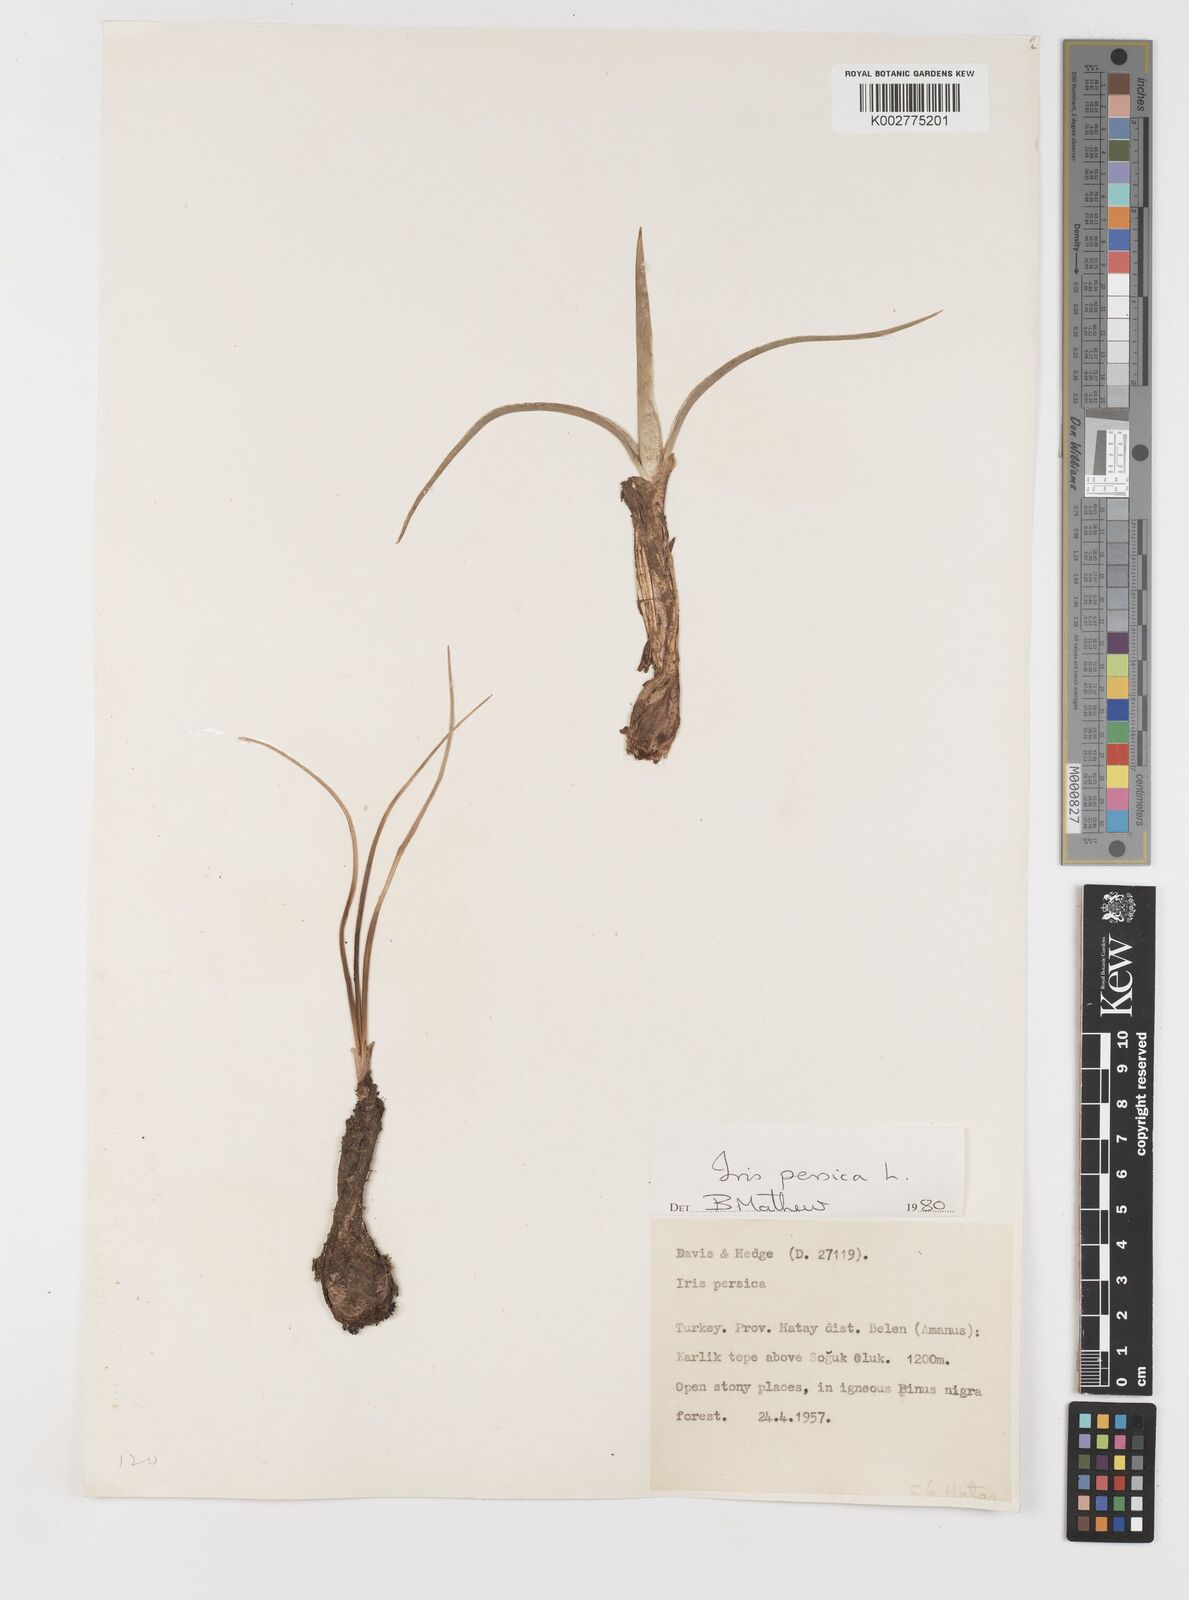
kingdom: Plantae
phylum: Tracheophyta
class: Liliopsida
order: Asparagales
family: Iridaceae
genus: Iris
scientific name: Iris persica
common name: Persian iris
